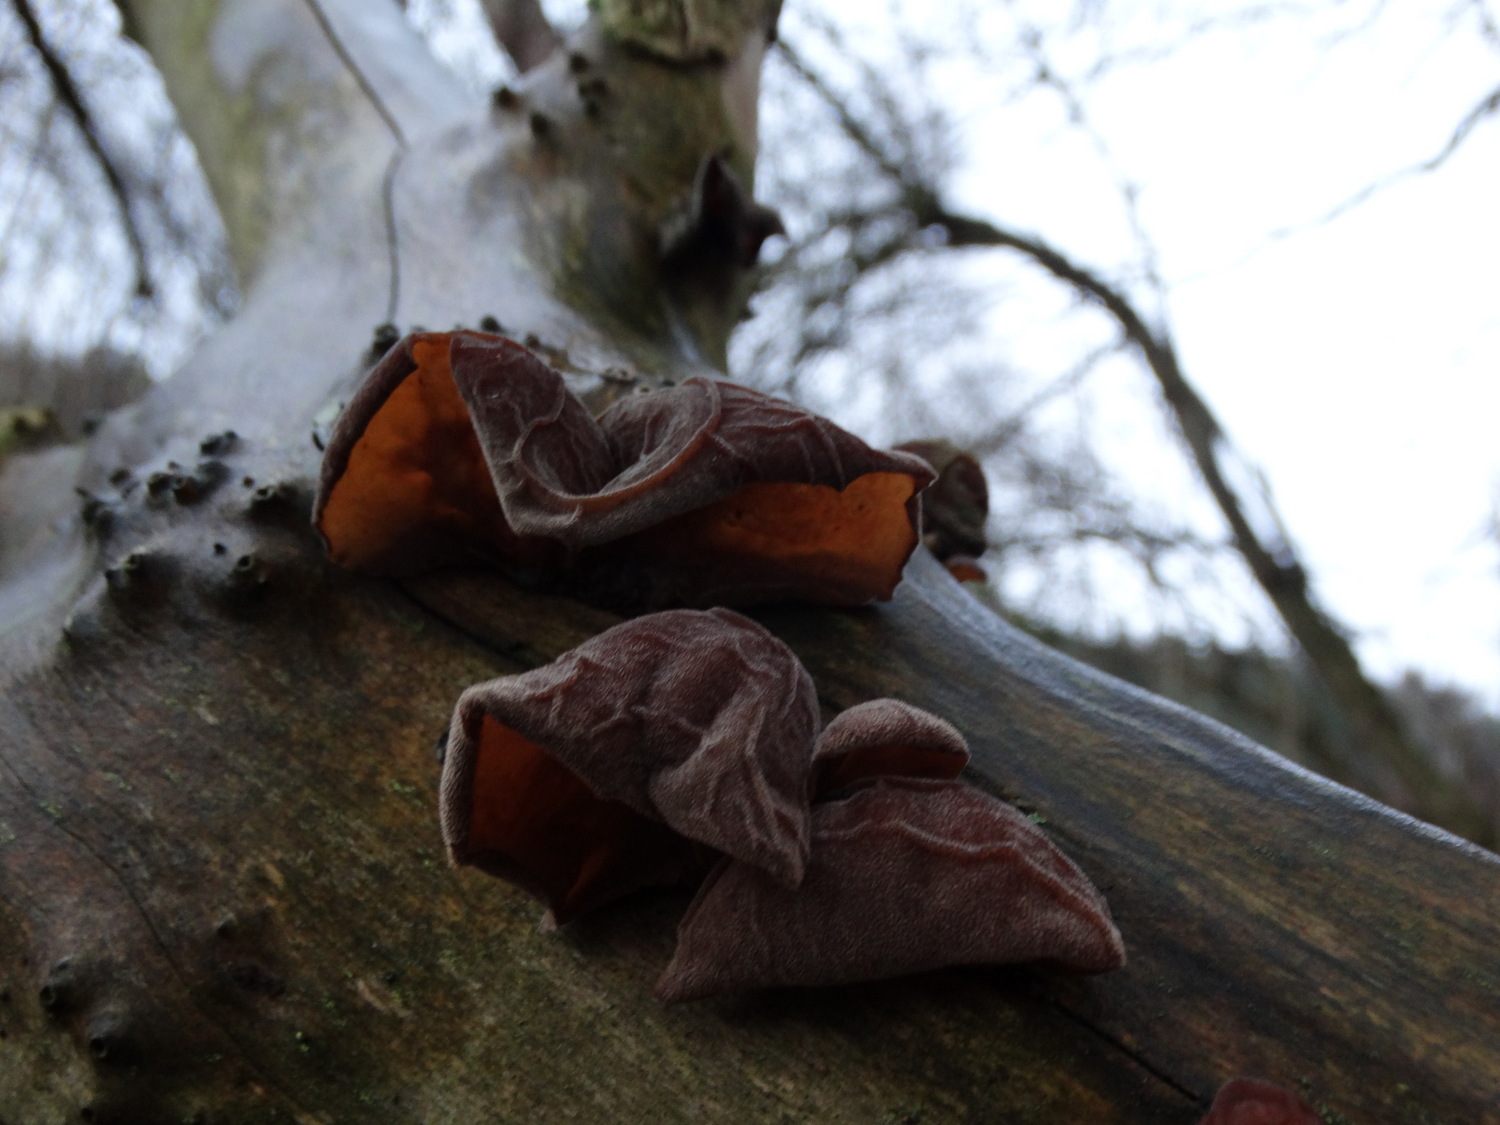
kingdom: Fungi
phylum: Basidiomycota
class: Agaricomycetes
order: Auriculariales
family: Auriculariaceae
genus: Auricularia
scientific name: Auricularia auricula-judae
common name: almindelig judasøre
